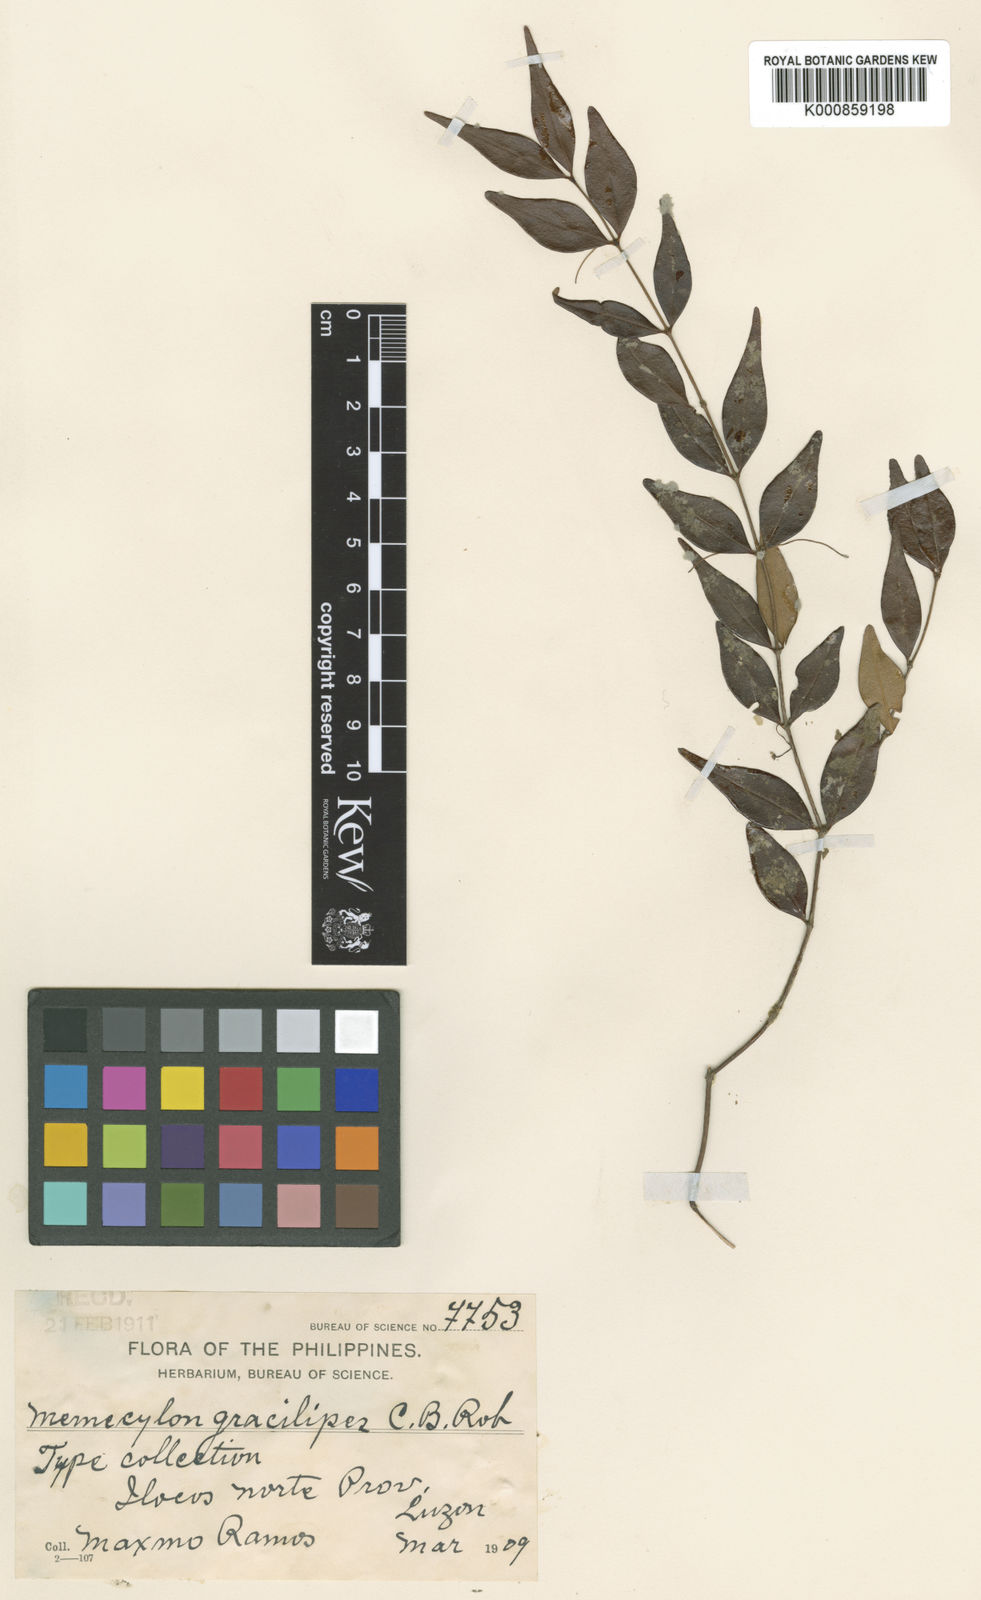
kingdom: Plantae
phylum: Tracheophyta
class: Magnoliopsida
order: Myrtales
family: Melastomataceae
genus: Memecylon
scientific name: Memecylon gracilipes
